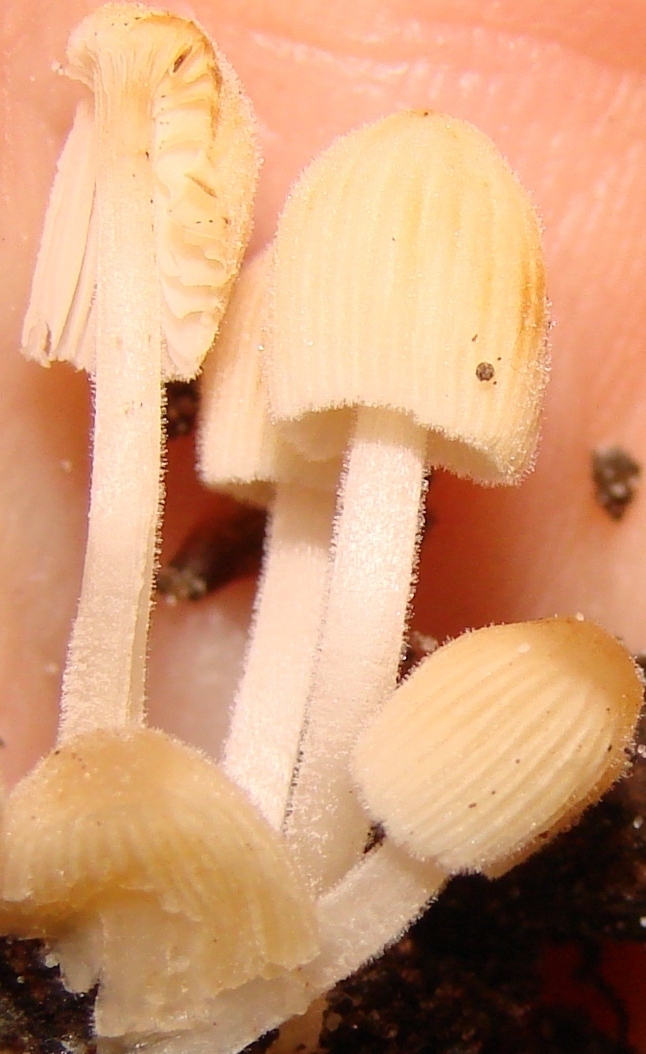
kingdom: Fungi
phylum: Basidiomycota
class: Agaricomycetes
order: Agaricales
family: Psathyrellaceae
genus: Tulosesus
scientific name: Tulosesus subdisseminatus
